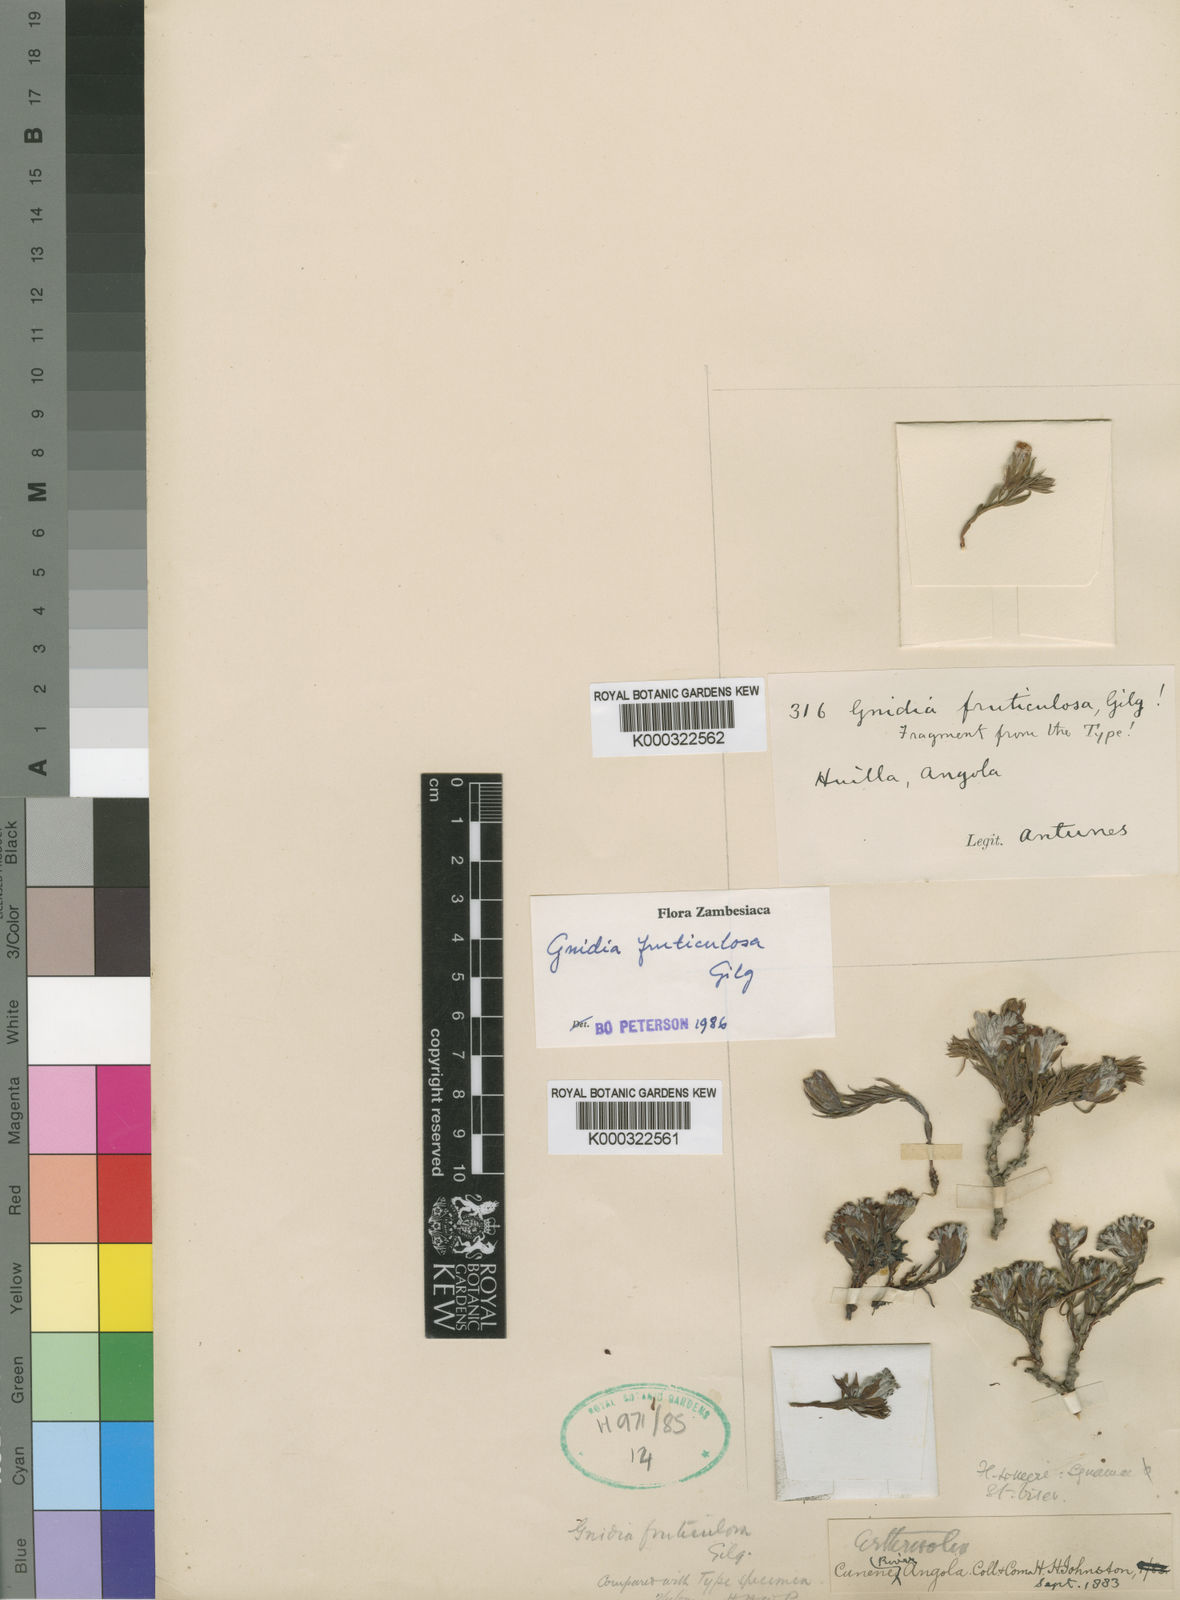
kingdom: Plantae
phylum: Tracheophyta
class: Magnoliopsida
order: Malvales
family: Thymelaeaceae
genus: Gnidia
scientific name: Gnidia fruticulosa
